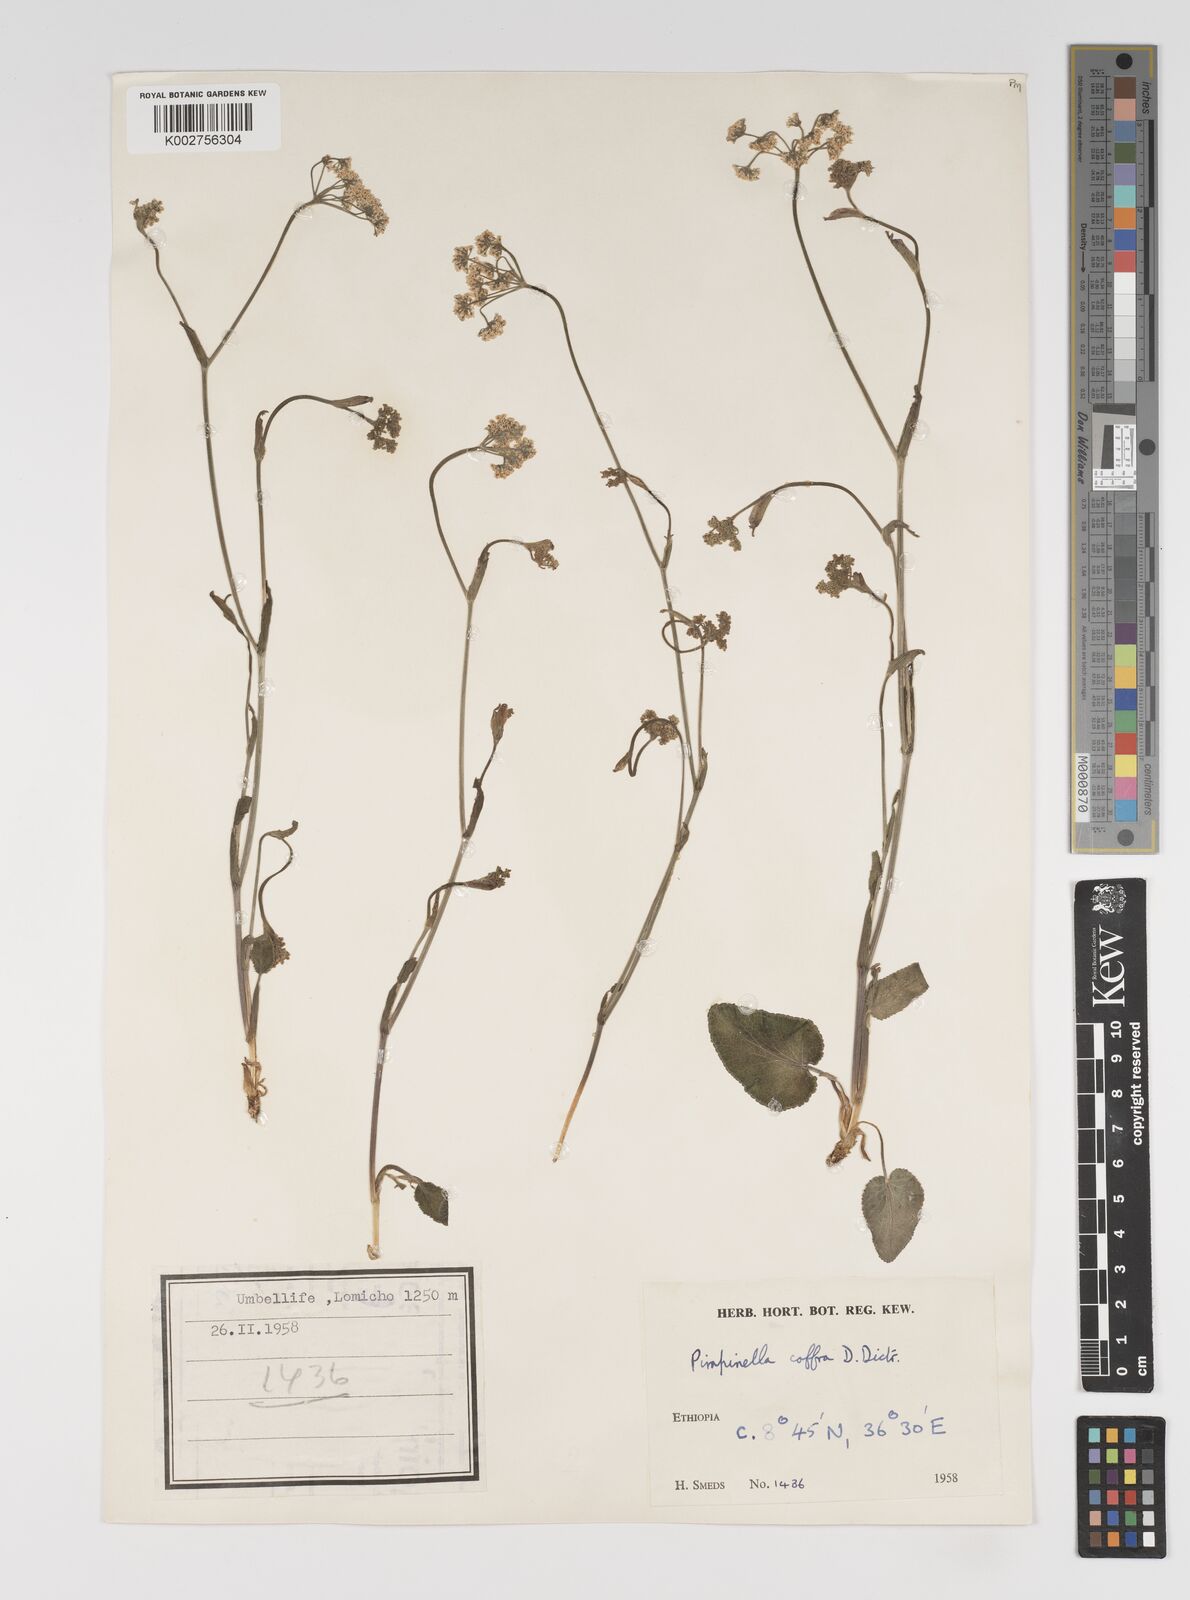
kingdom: Plantae
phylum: Tracheophyta
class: Magnoliopsida
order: Apiales
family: Apiaceae
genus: Pimpinella
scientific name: Pimpinella peregrina
